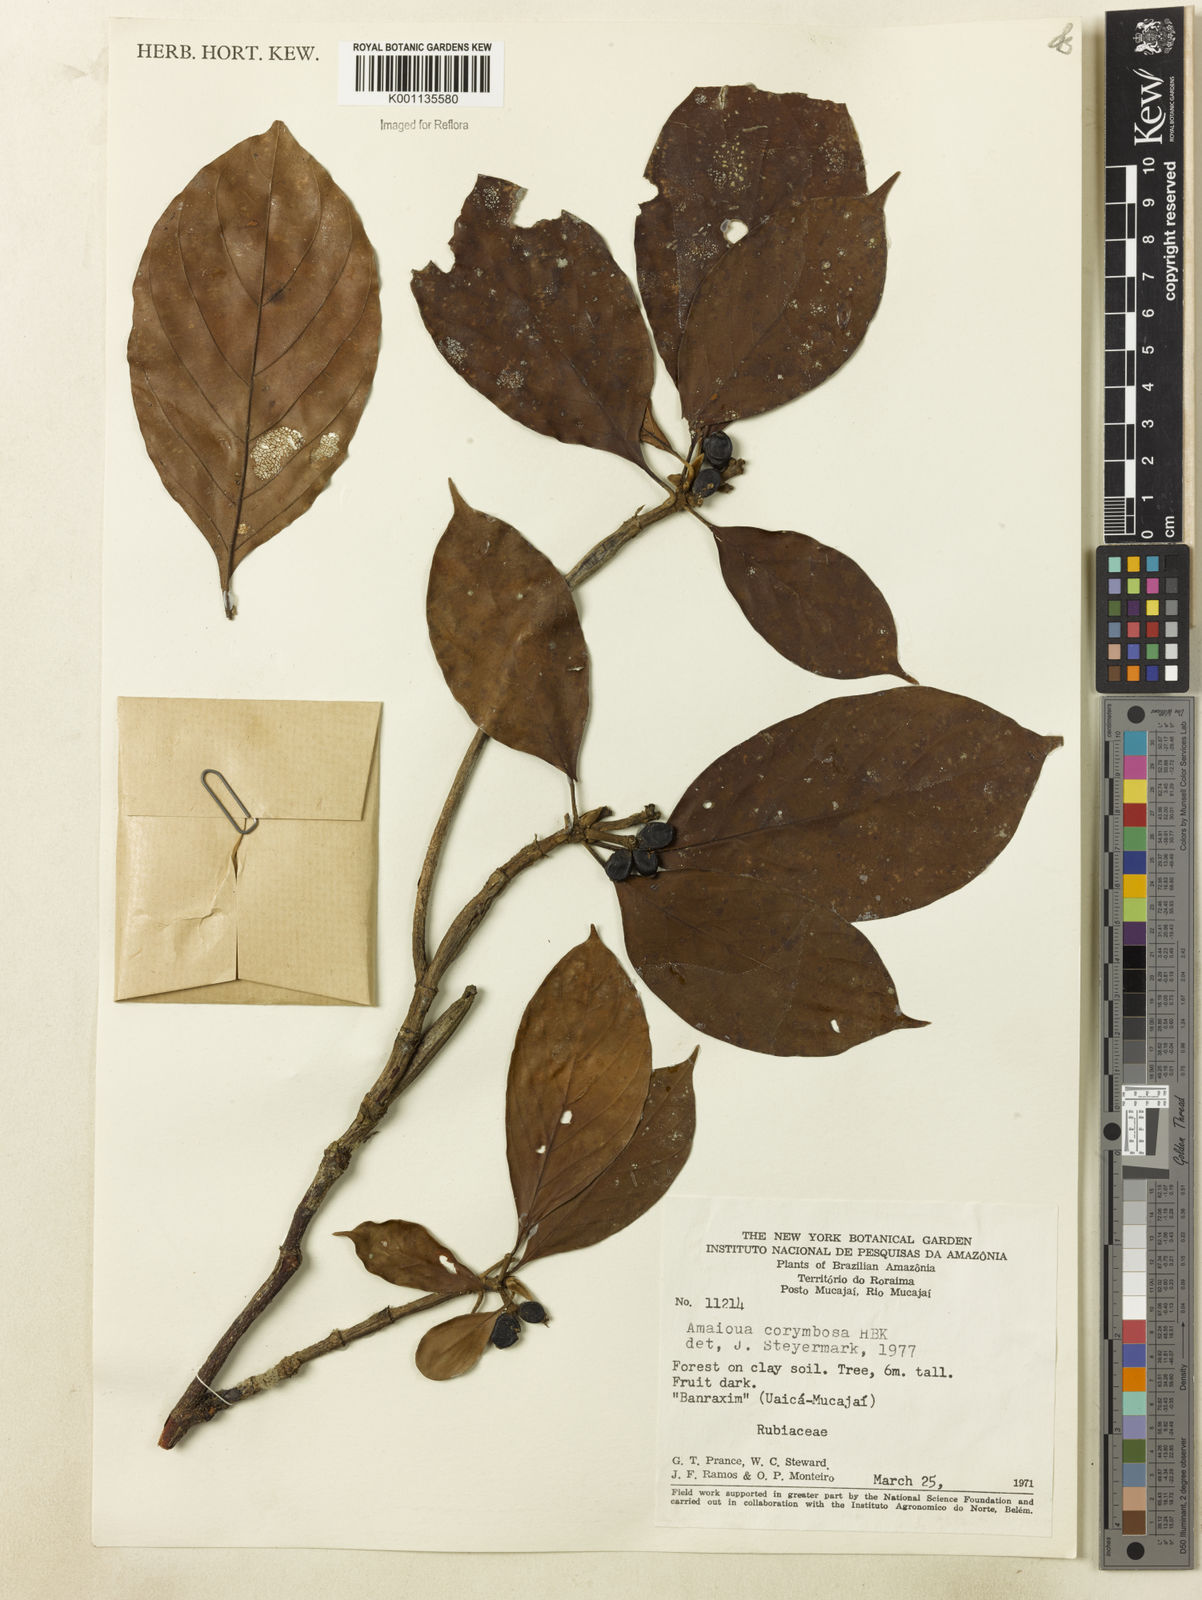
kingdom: Plantae
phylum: Tracheophyta
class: Magnoliopsida
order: Gentianales
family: Rubiaceae
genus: Amaioua
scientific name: Amaioua glomerulata
